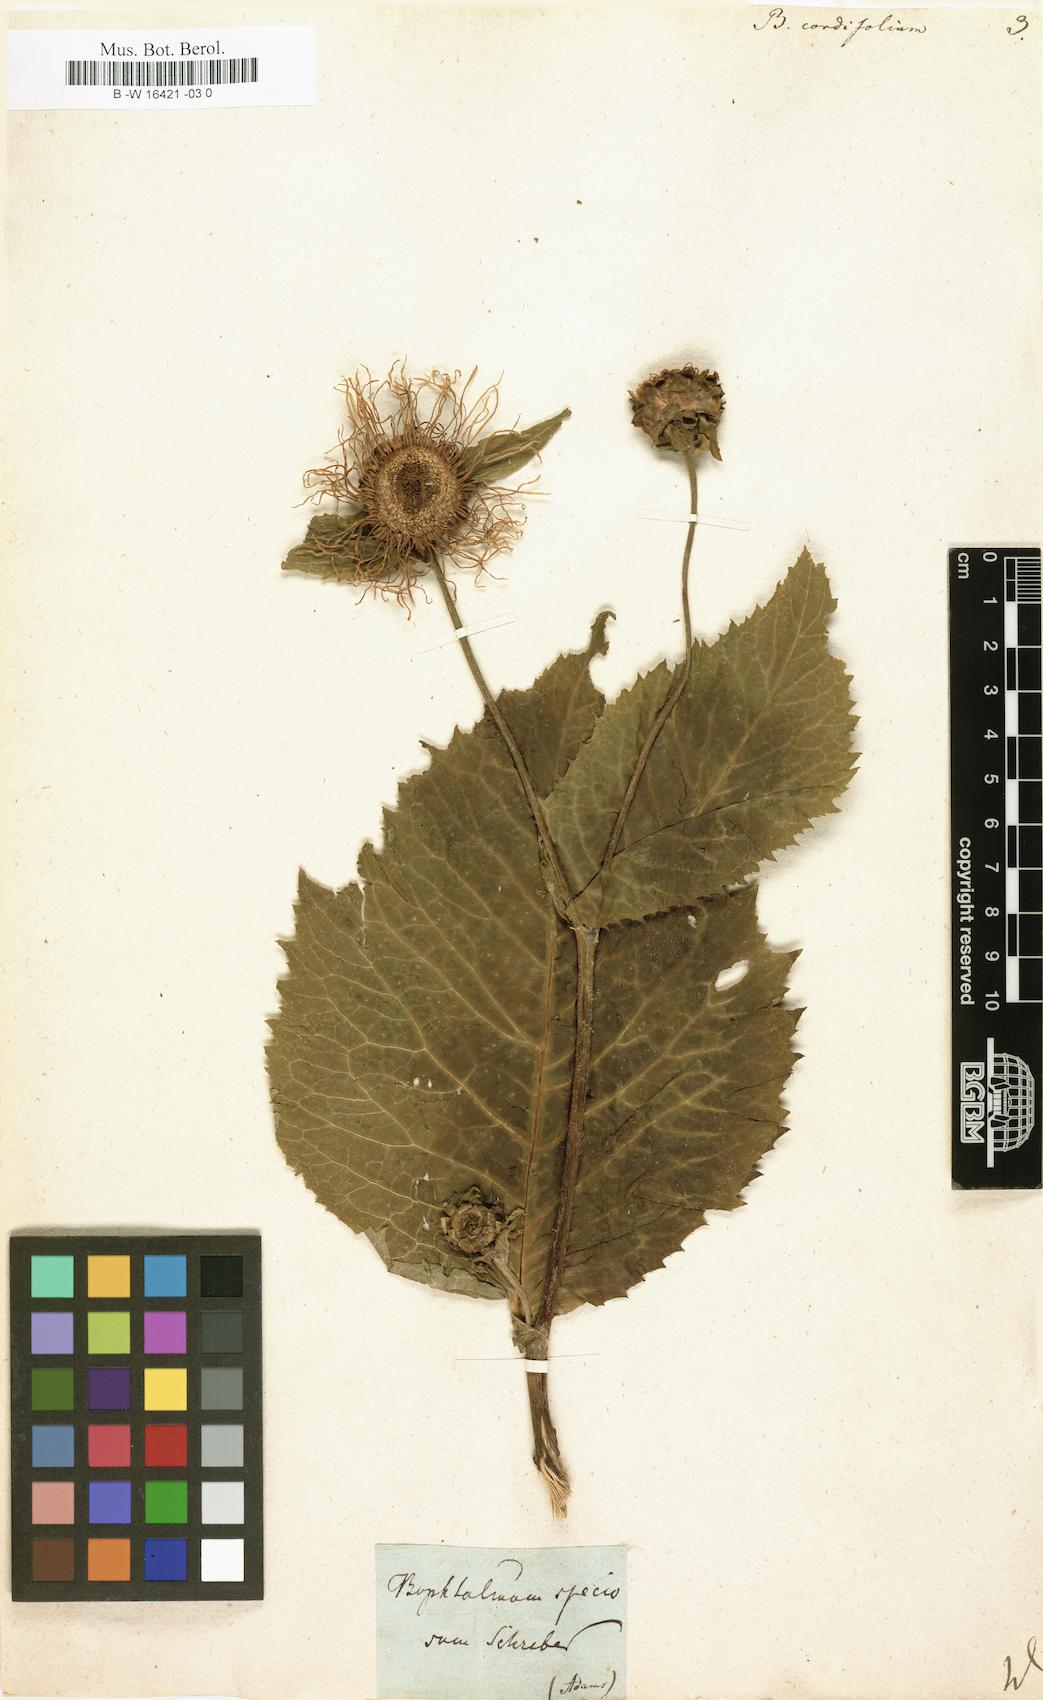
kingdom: Plantae
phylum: Tracheophyta
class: Magnoliopsida
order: Asterales
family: Asteraceae
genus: Telekia
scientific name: Telekia speciosa
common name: Yellow oxeye
